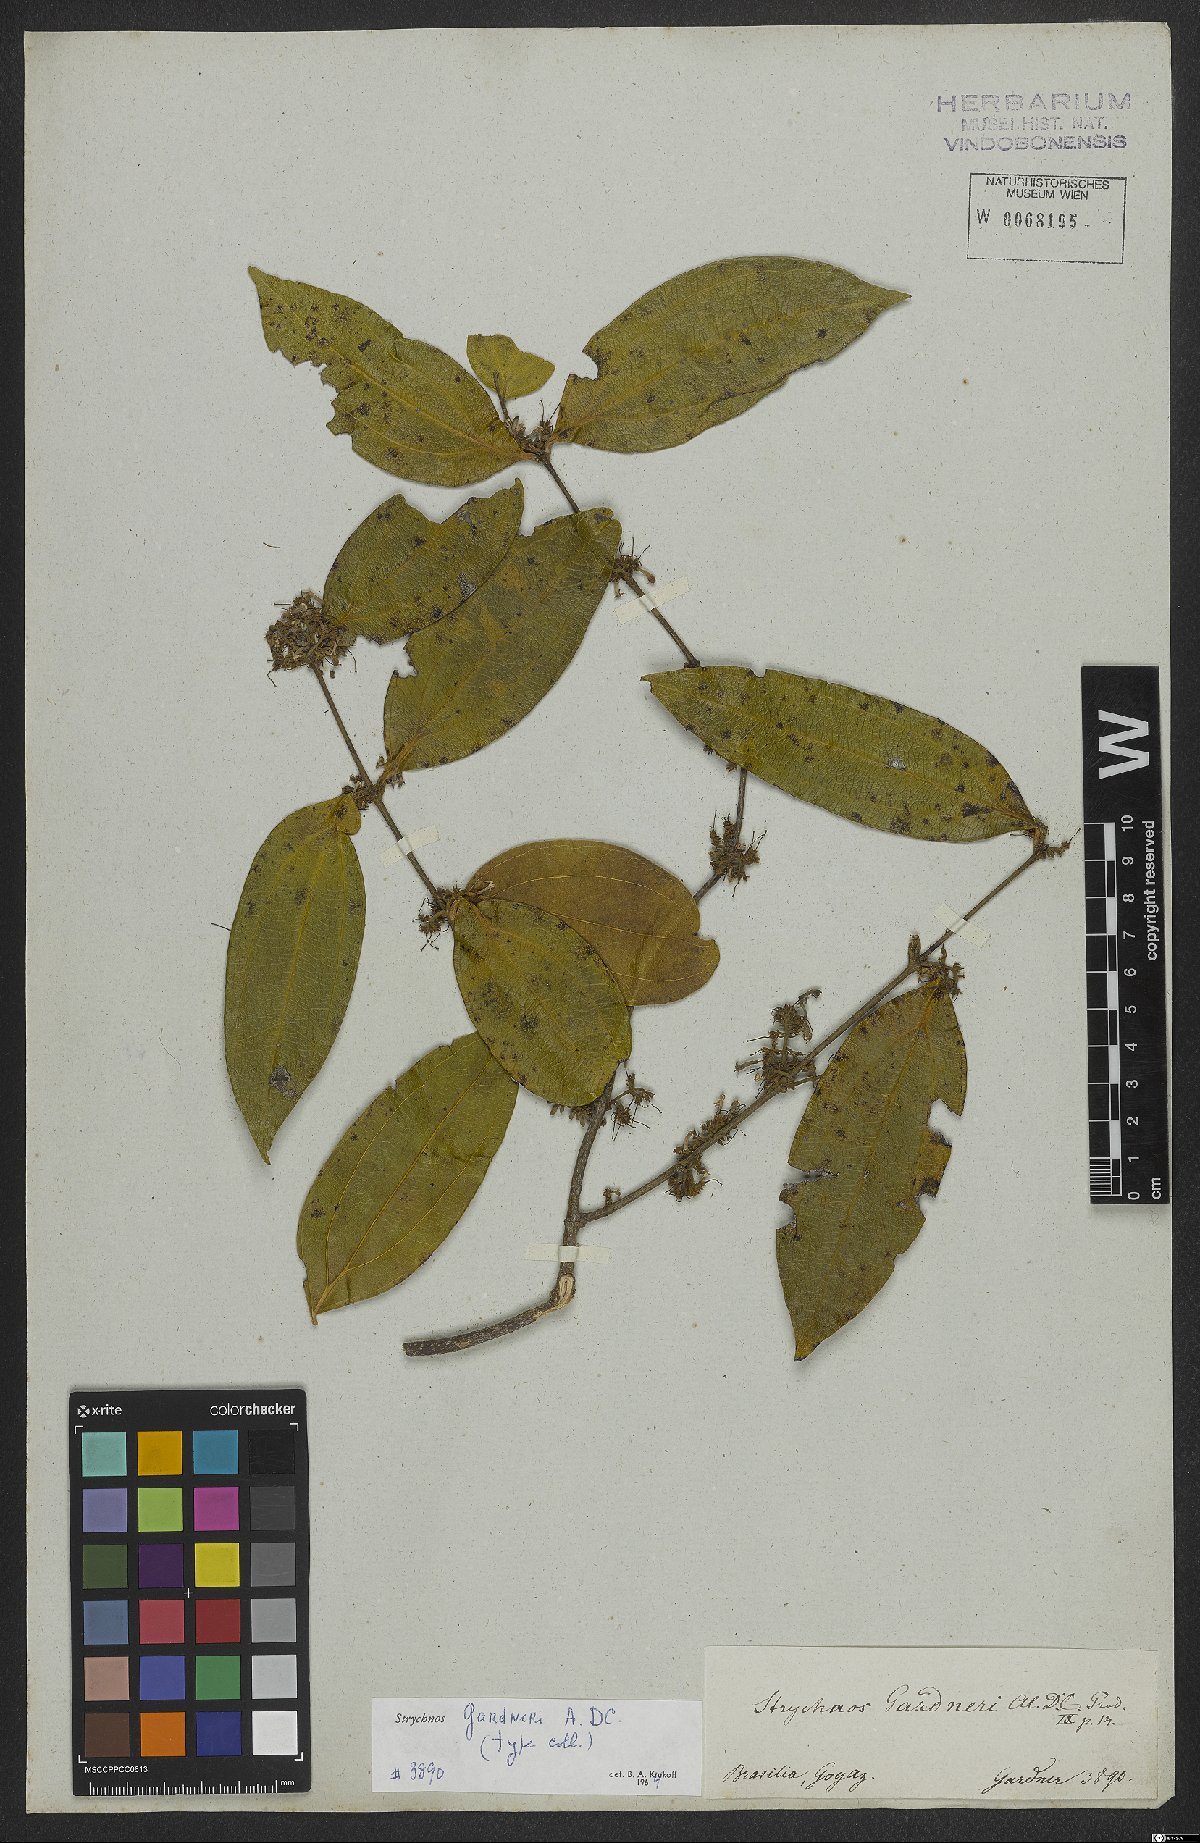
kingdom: Plantae
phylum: Tracheophyta
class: Magnoliopsida
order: Gentianales
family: Loganiaceae
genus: Strychnos
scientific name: Strychnos gardneri
